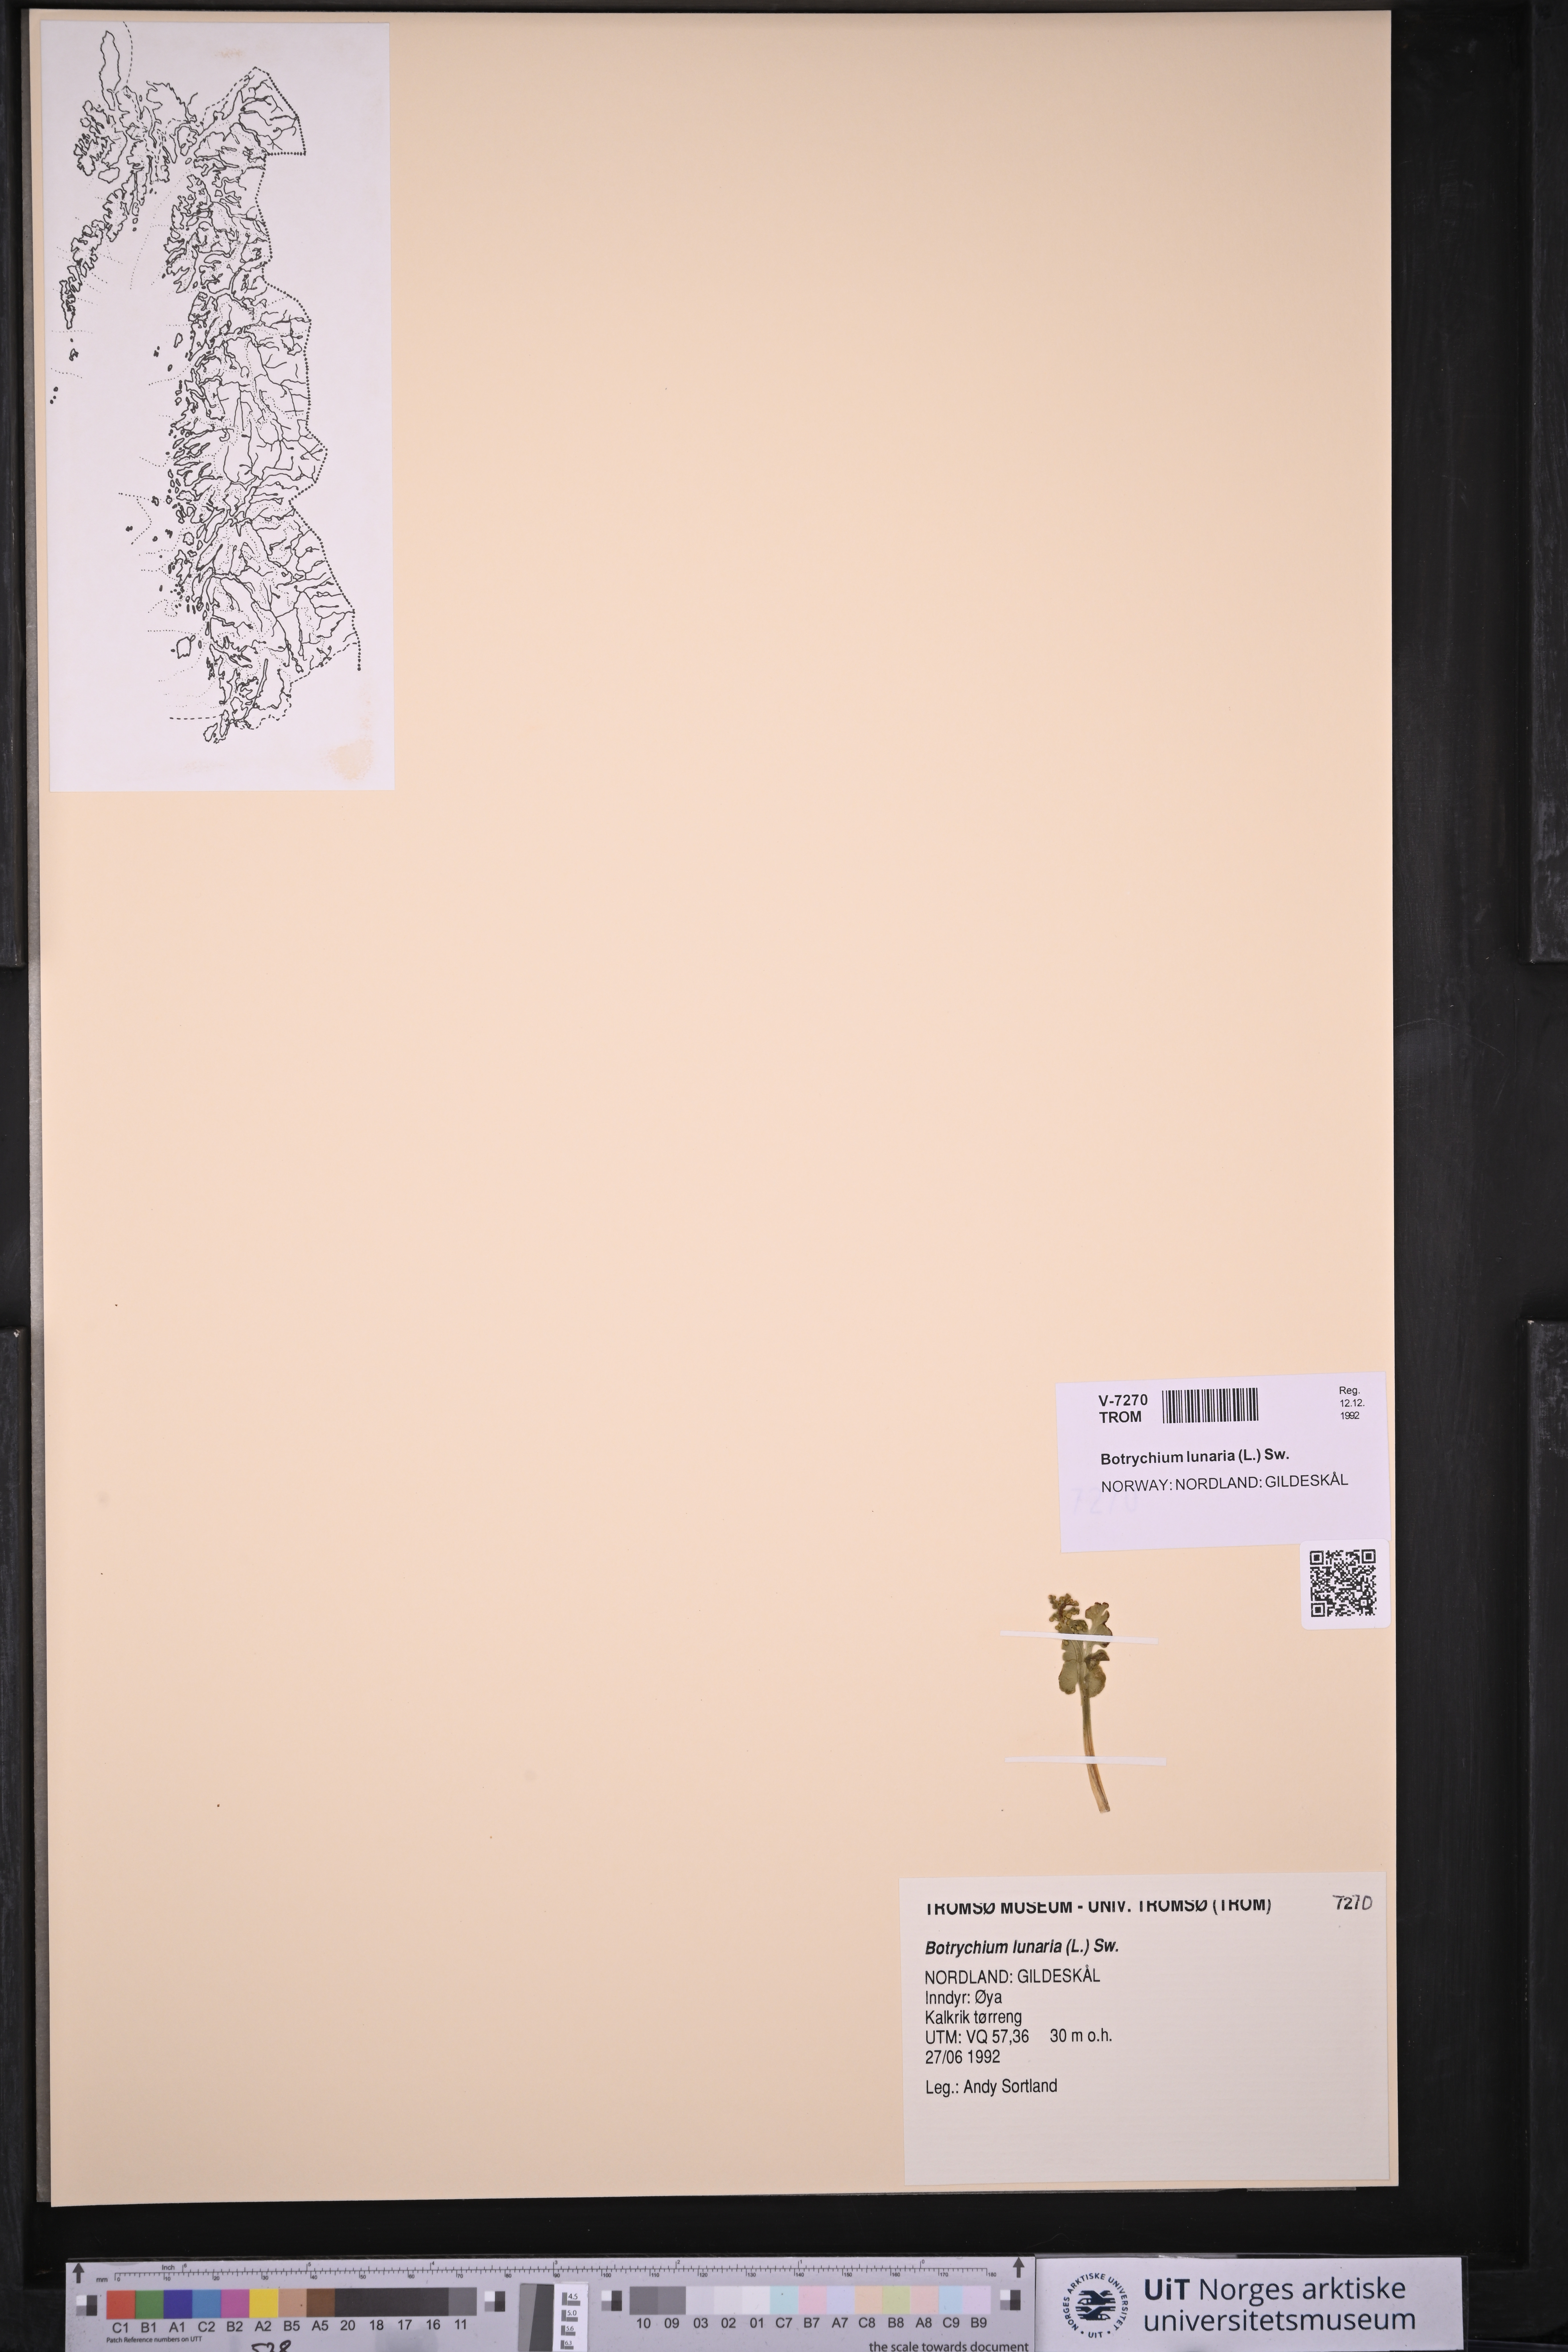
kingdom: Plantae
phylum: Tracheophyta
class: Polypodiopsida
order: Ophioglossales
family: Ophioglossaceae
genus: Botrychium
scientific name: Botrychium lunaria
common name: Moonwort
